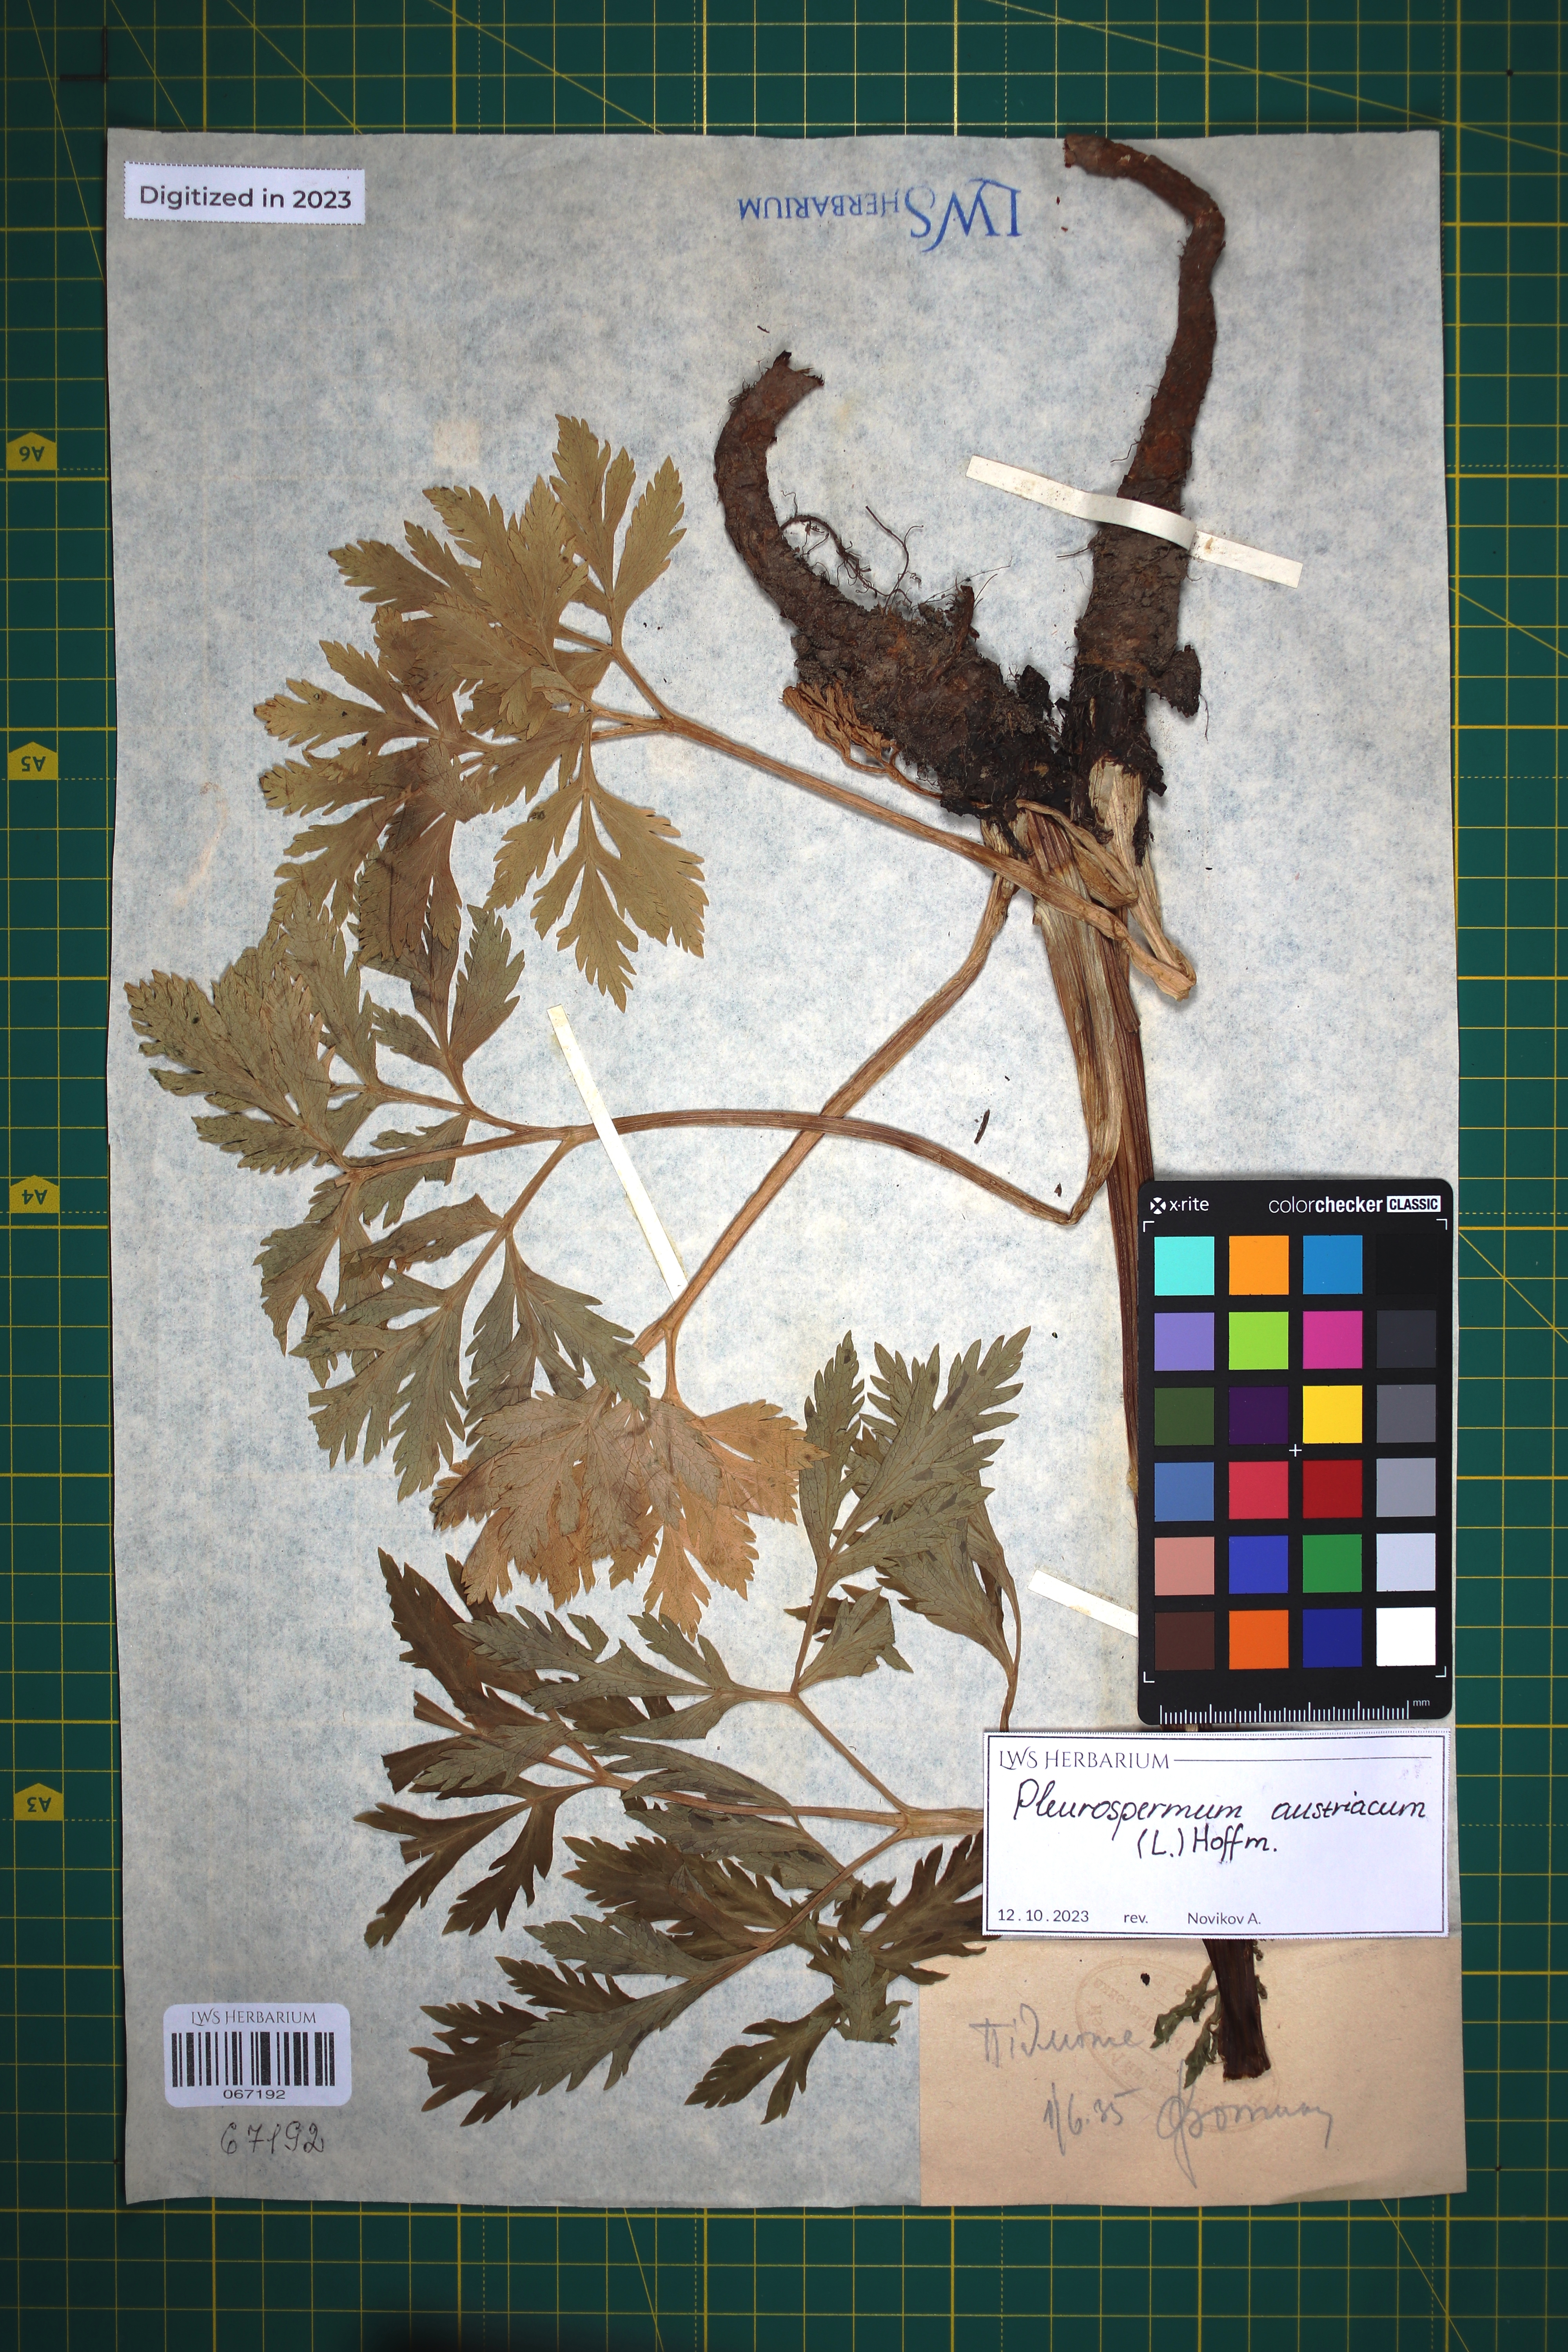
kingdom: Plantae
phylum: Tracheophyta
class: Magnoliopsida
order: Apiales
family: Apiaceae
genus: Pleurospermum
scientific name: Pleurospermum austriacum
